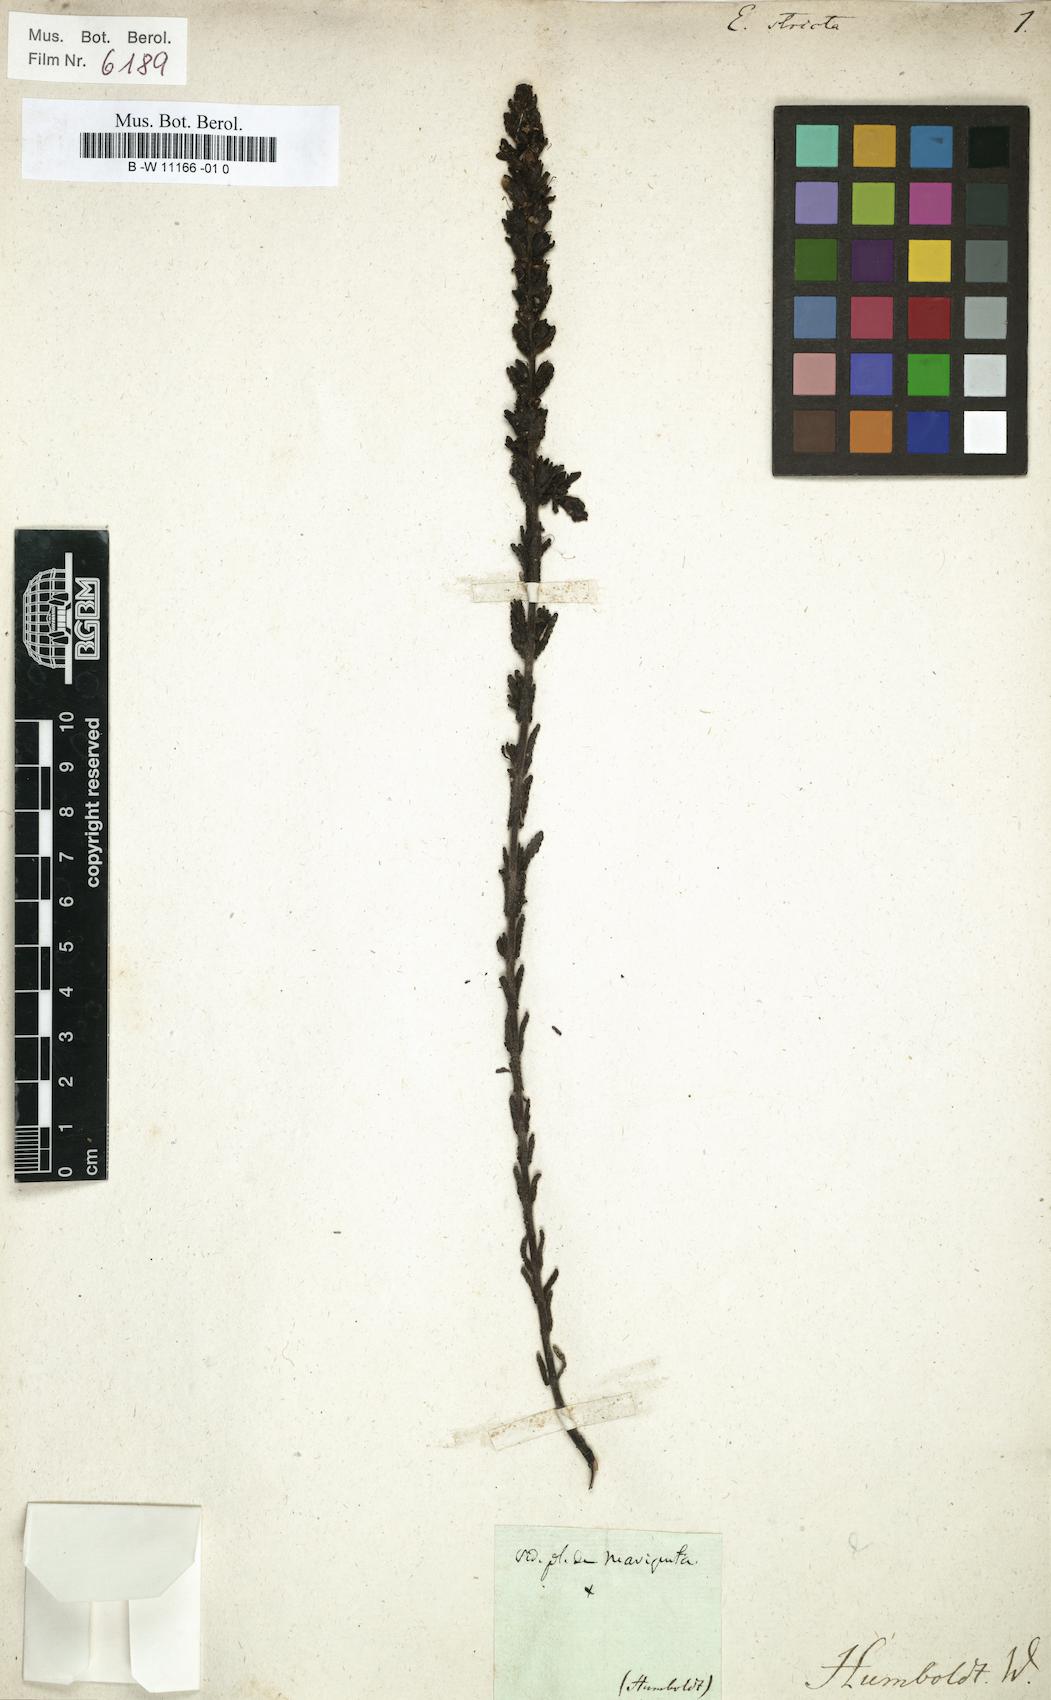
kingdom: Plantae
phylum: Tracheophyta
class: Magnoliopsida
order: Lamiales
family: Orobanchaceae
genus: Neobartsia
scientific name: Neobartsia stricta
